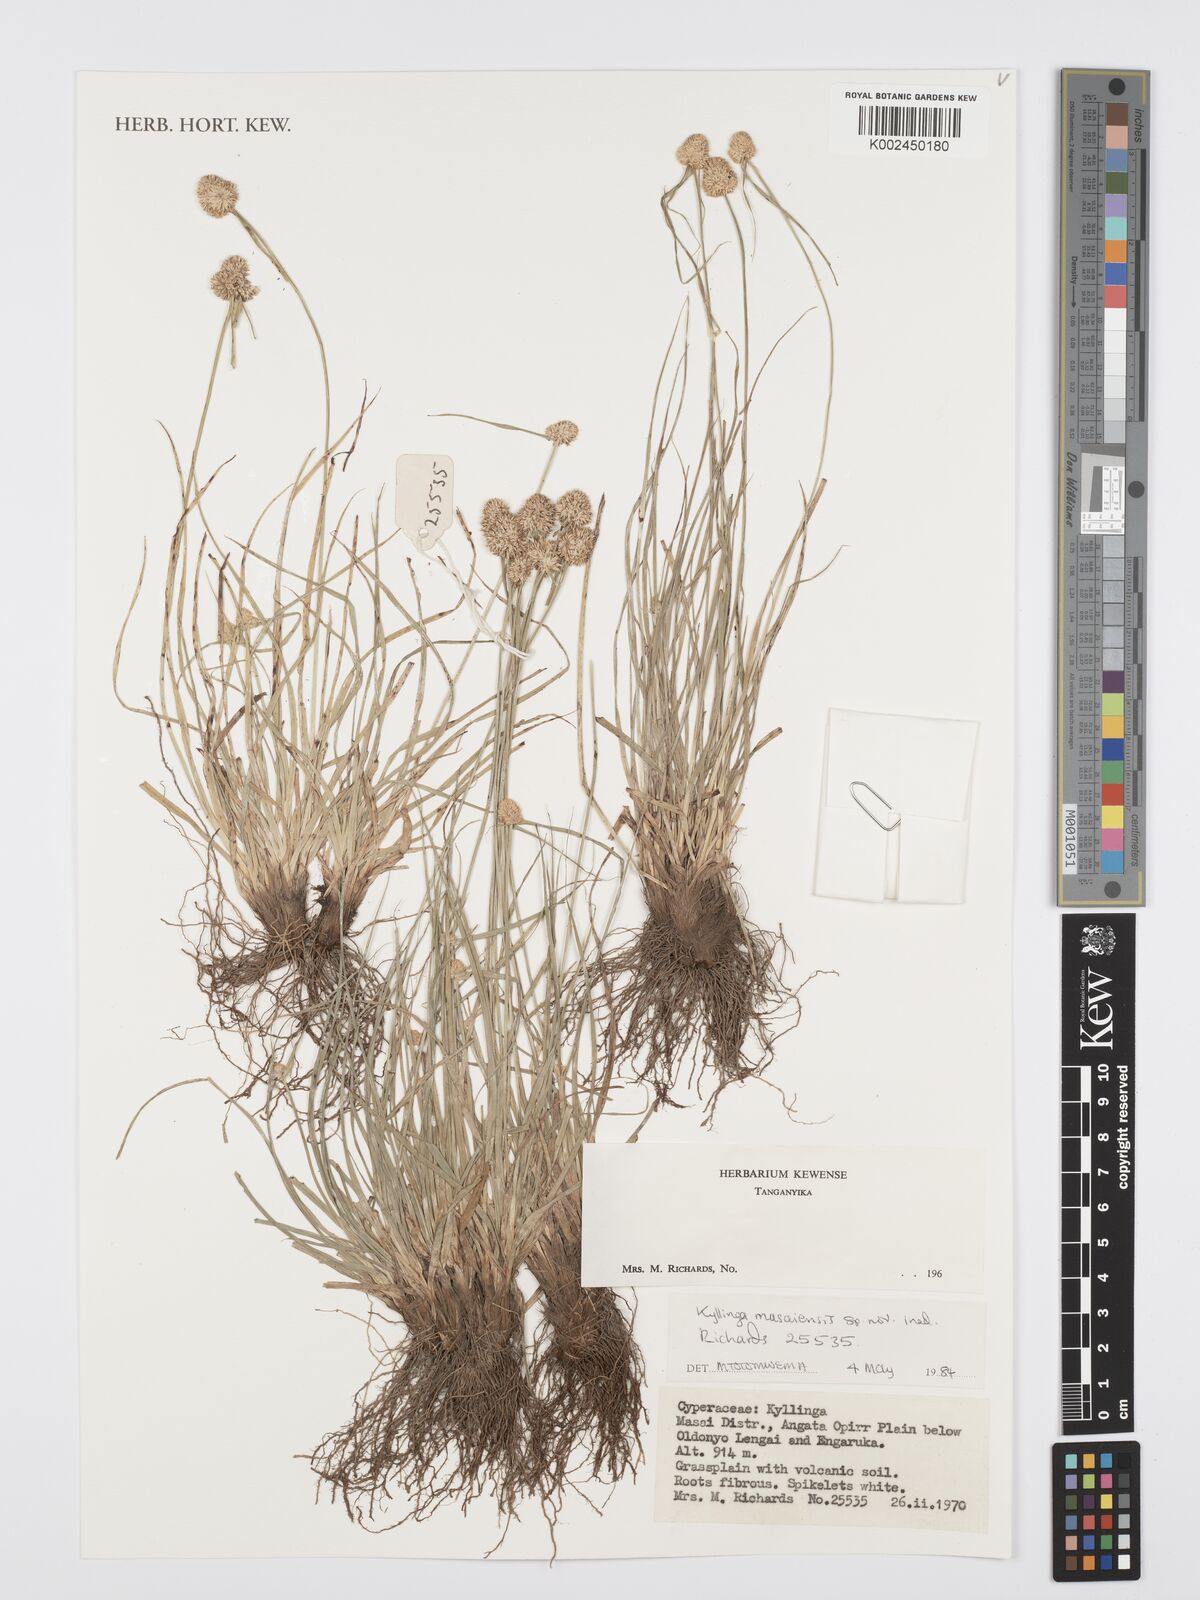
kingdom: Plantae
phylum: Tracheophyta
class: Liliopsida
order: Poales
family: Cyperaceae
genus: Cyperus
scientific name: Cyperus
